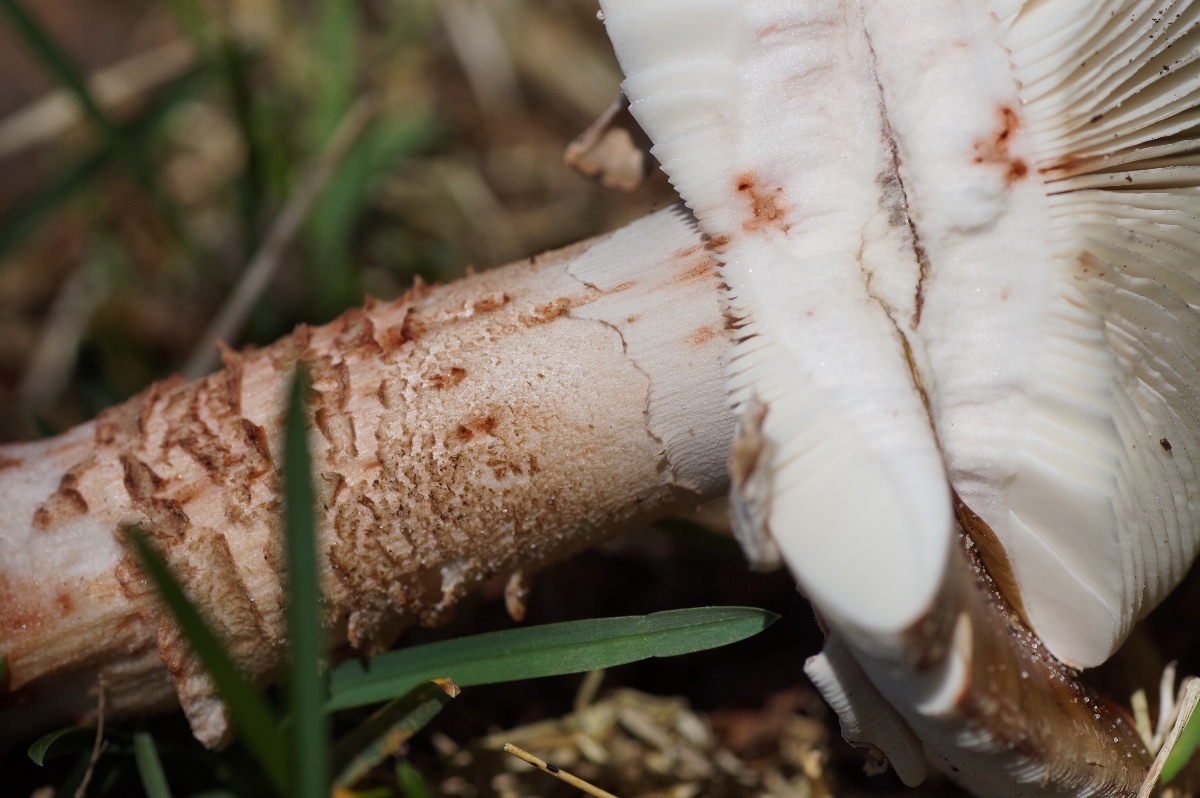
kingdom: Fungi
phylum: Basidiomycota
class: Agaricomycetes
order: Agaricales
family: Amanitaceae
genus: Amanita
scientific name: Amanita rubescens
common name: rødmende fluesvamp
